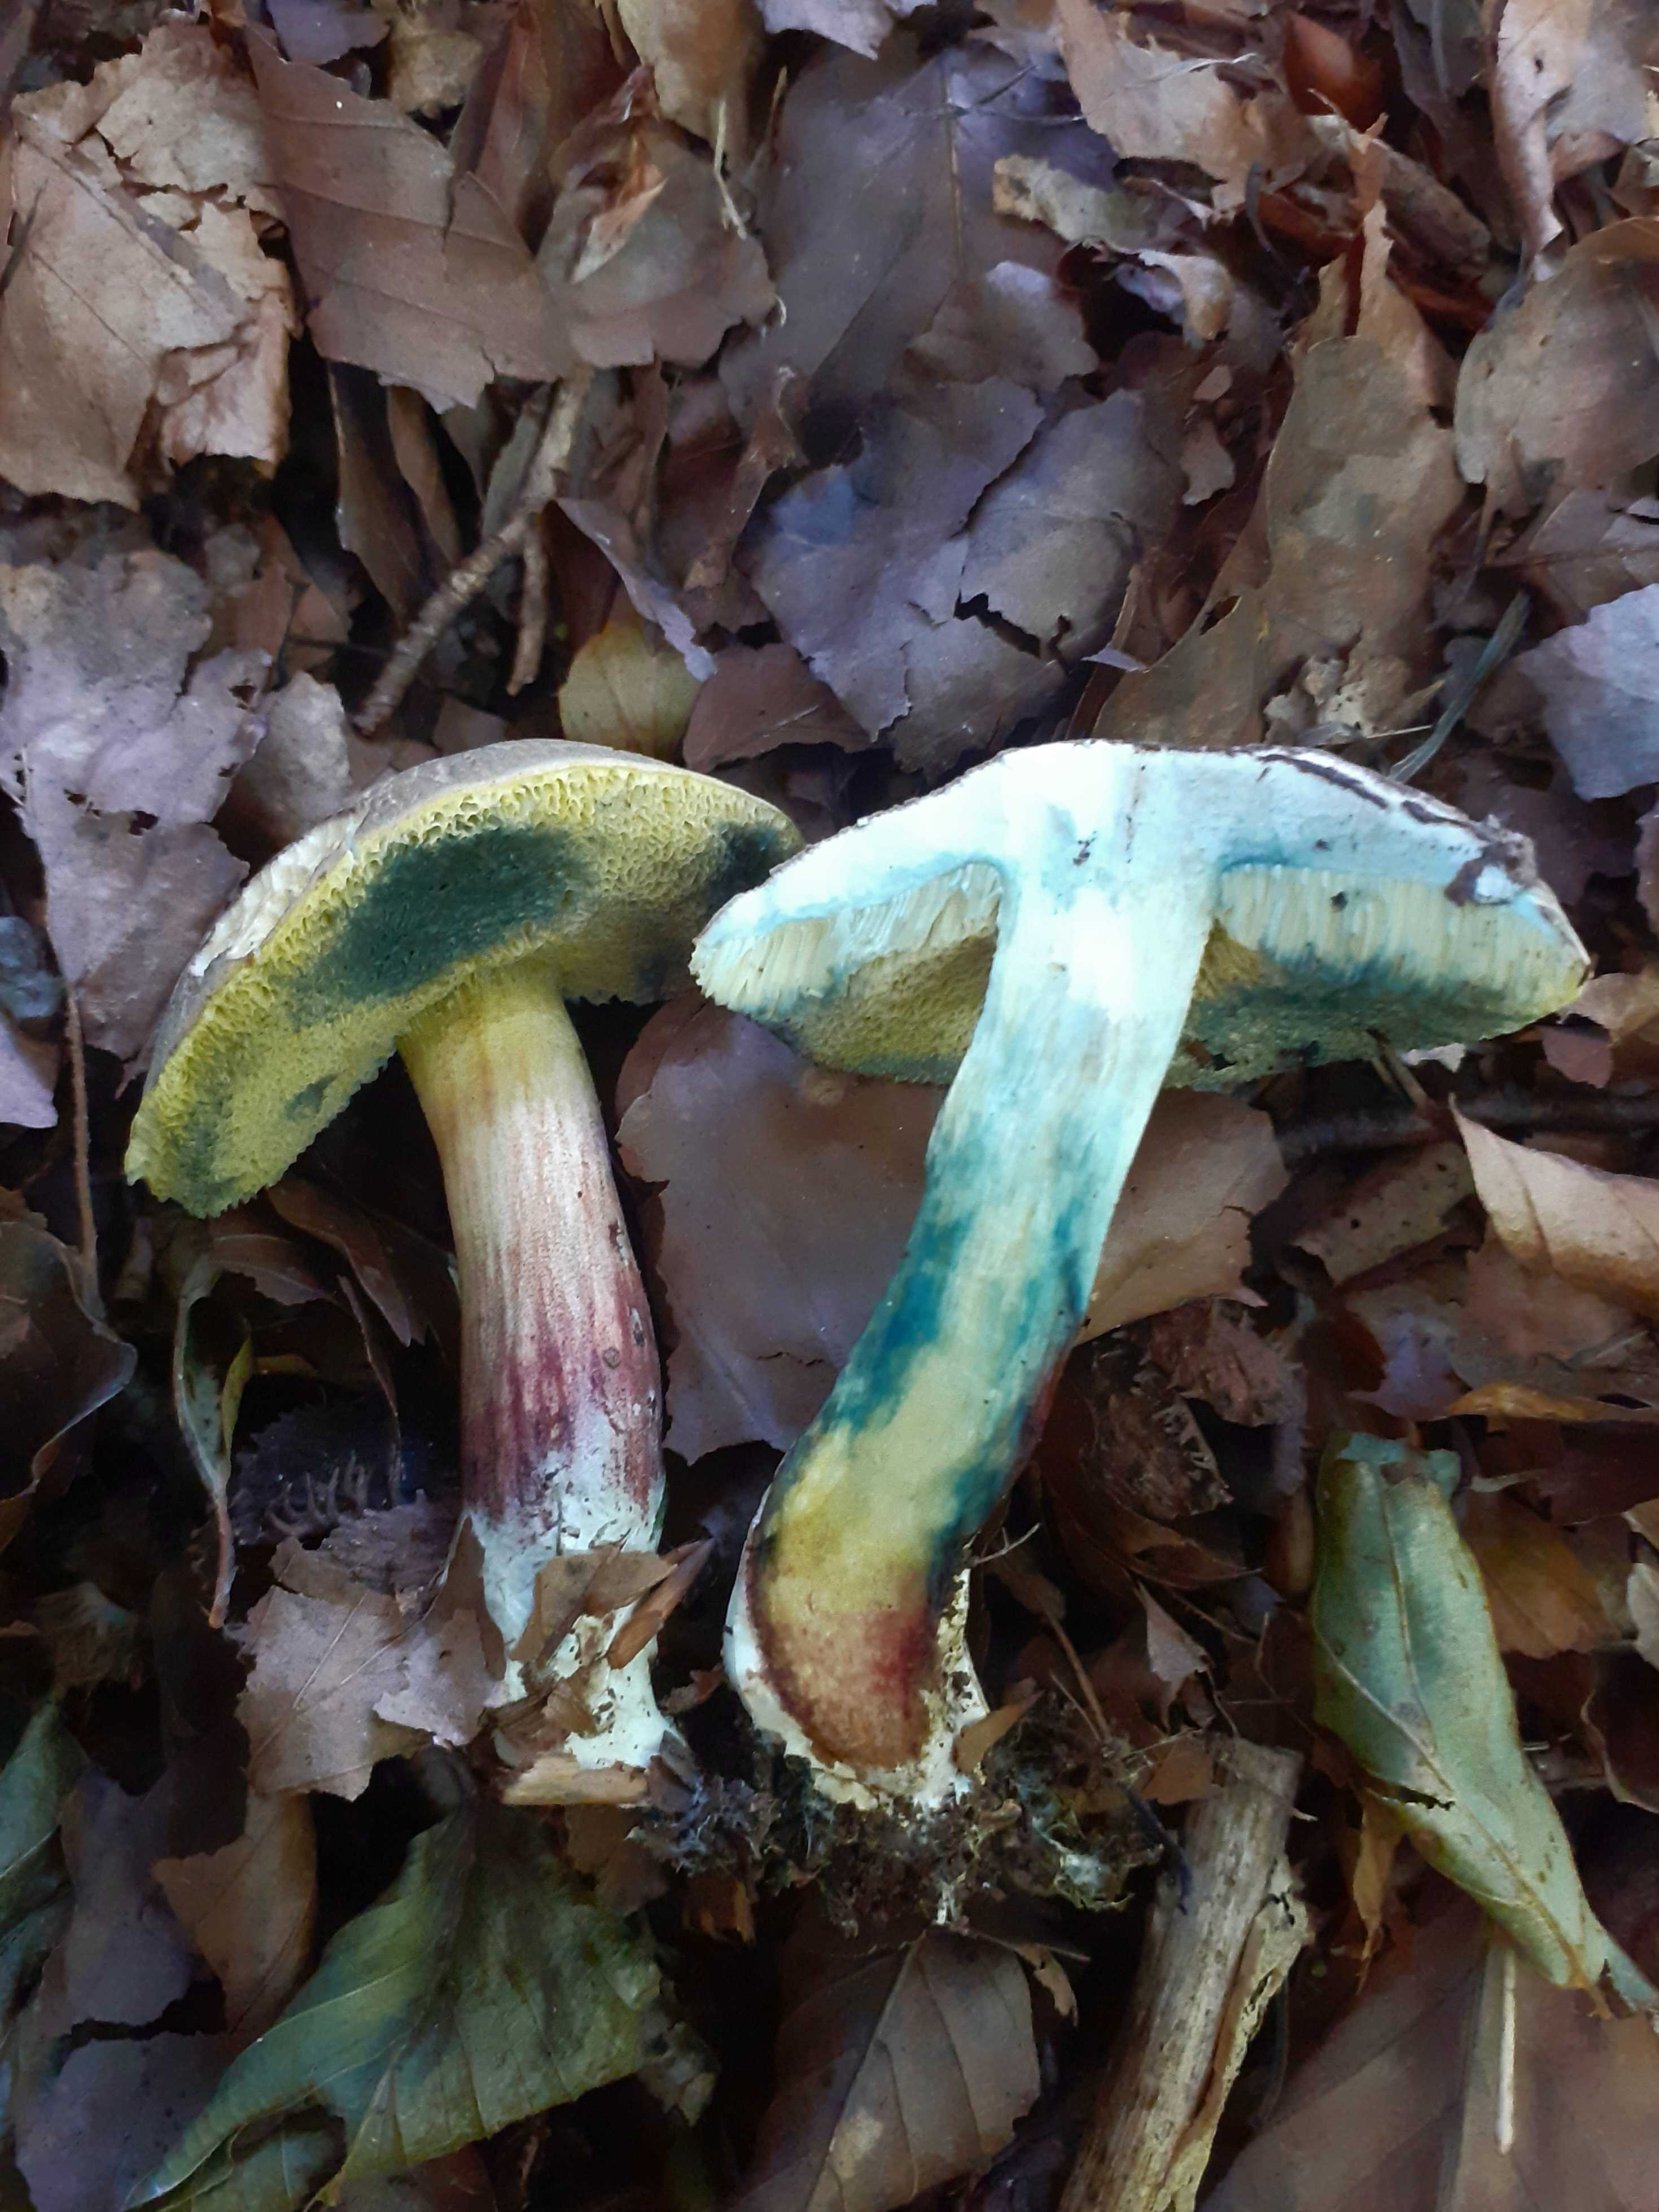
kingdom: Fungi
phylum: Basidiomycota
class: Agaricomycetes
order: Boletales
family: Boletaceae
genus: Xerocomellus
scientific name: Xerocomellus cisalpinus
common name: finsprukken rørhat
